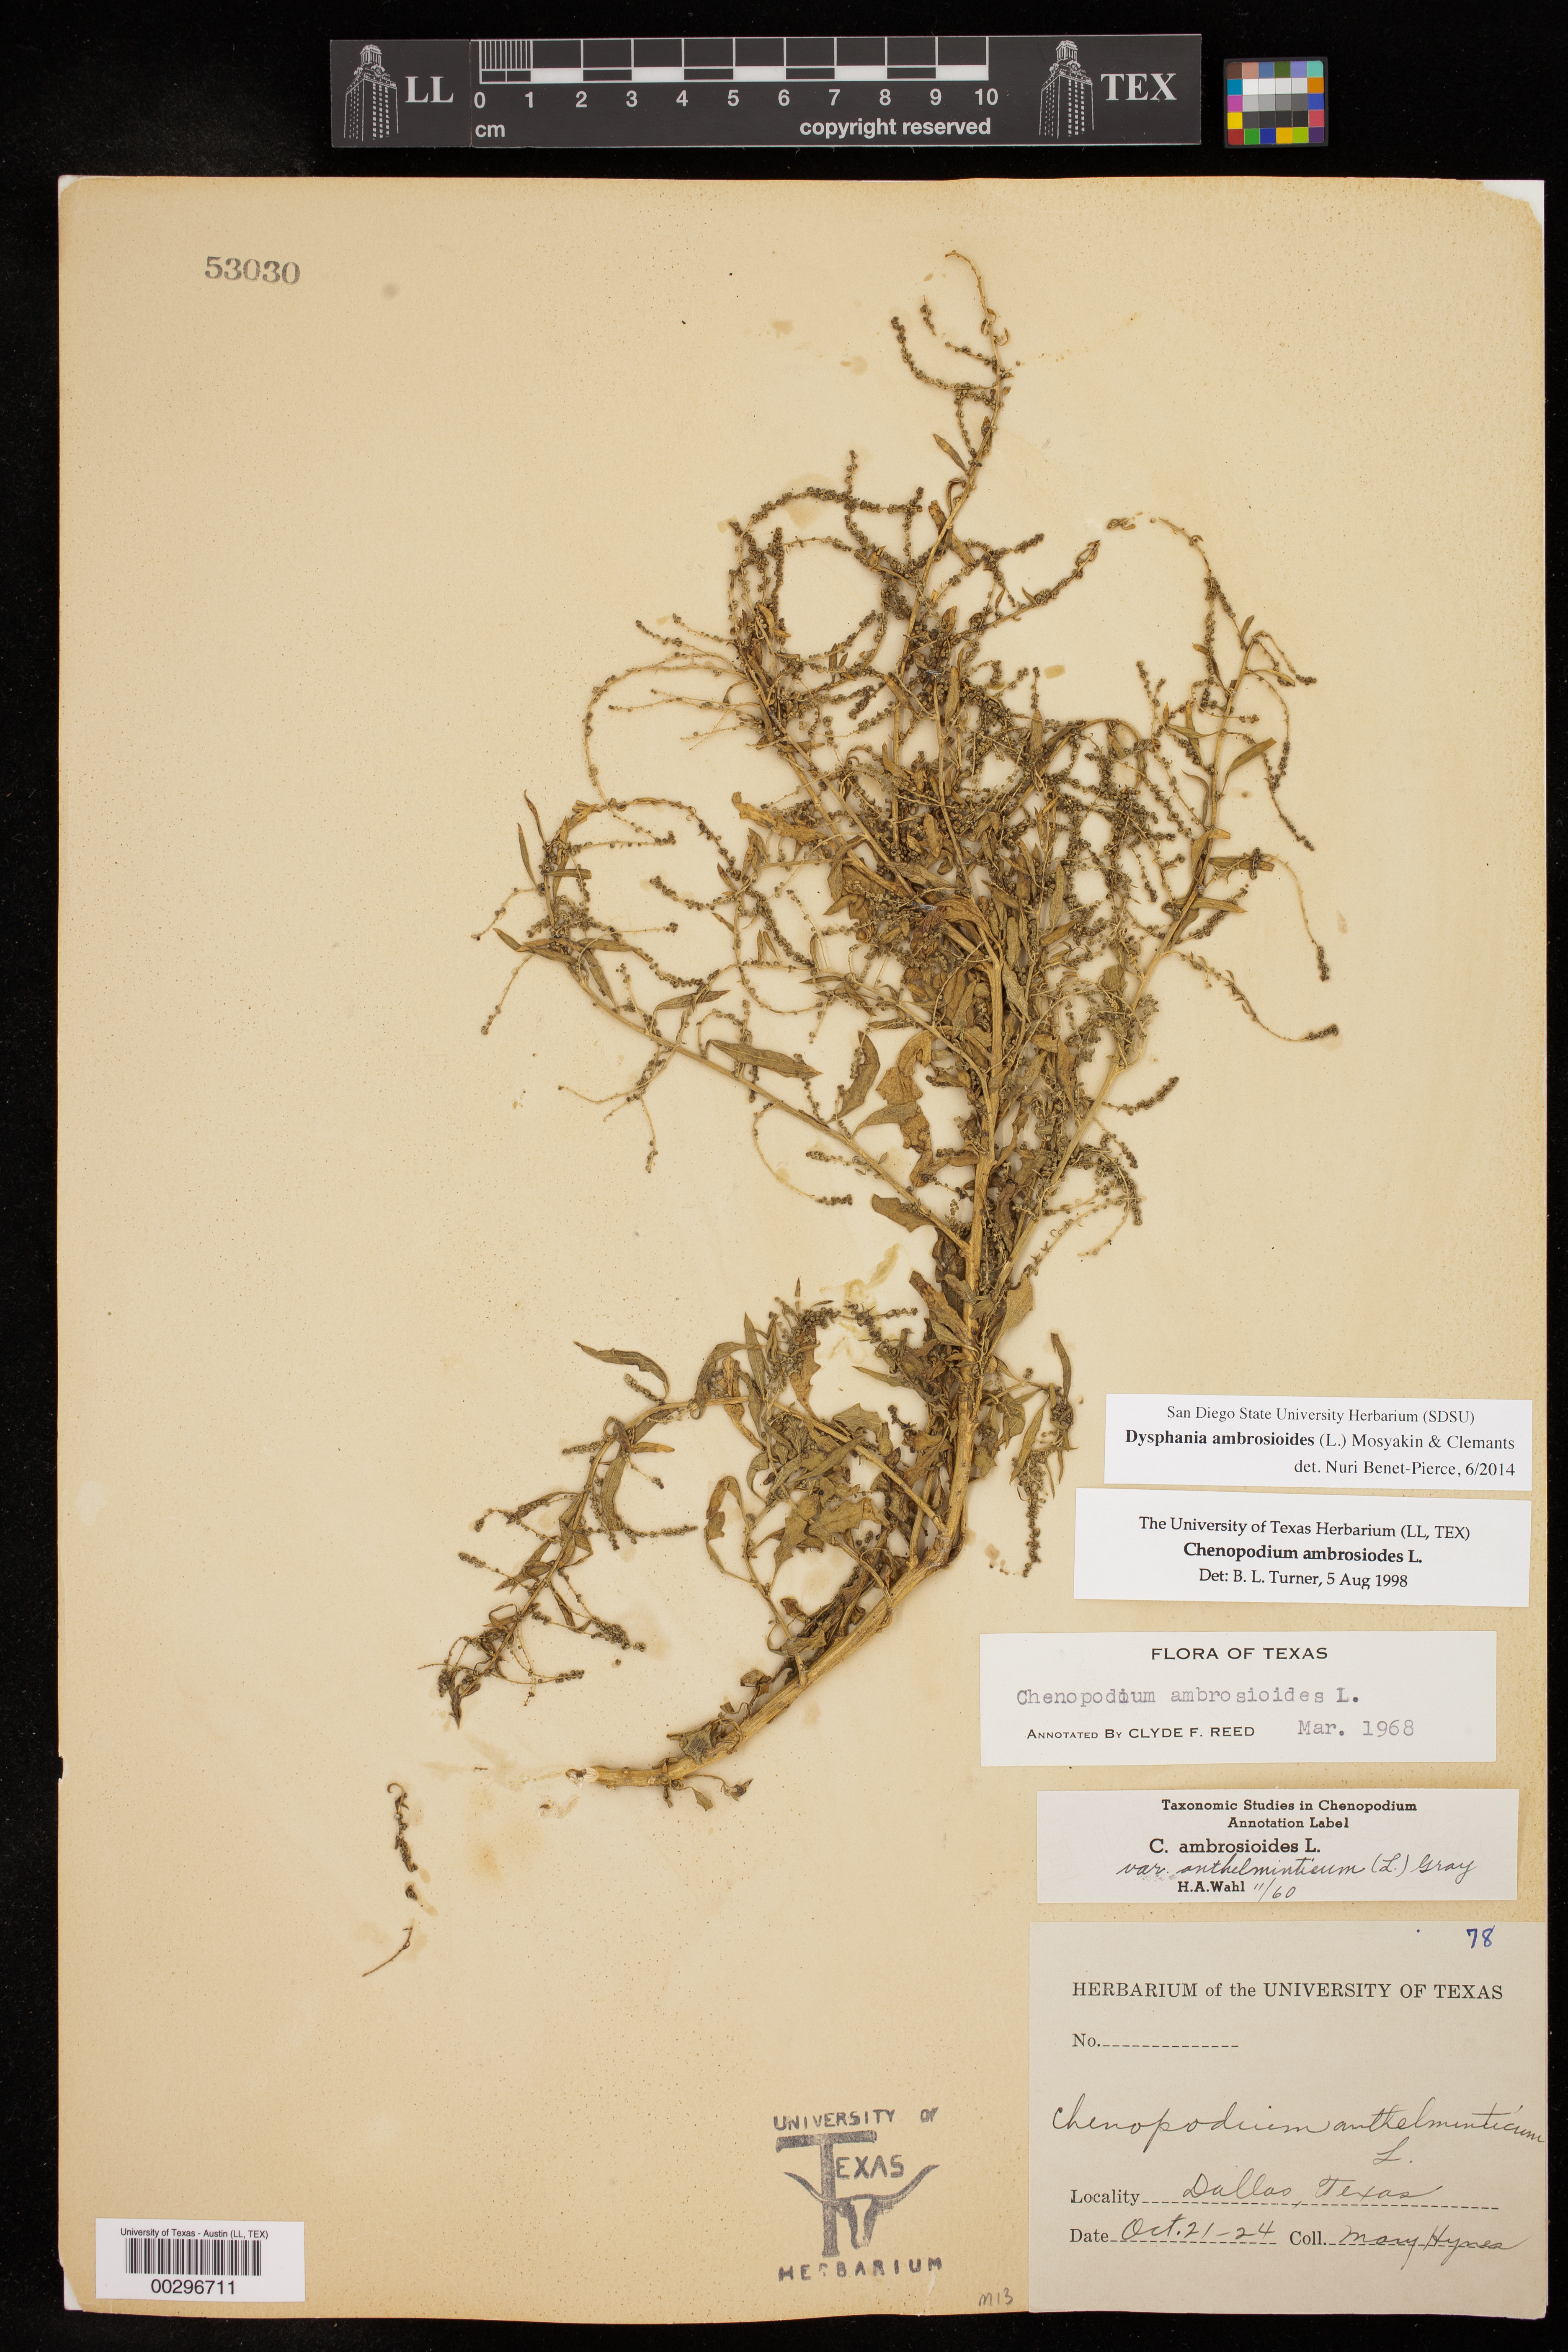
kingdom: Plantae
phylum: Tracheophyta
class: Magnoliopsida
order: Caryophyllales
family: Amaranthaceae
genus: Dysphania
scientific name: Dysphania ambrosioides
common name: Wormseed
